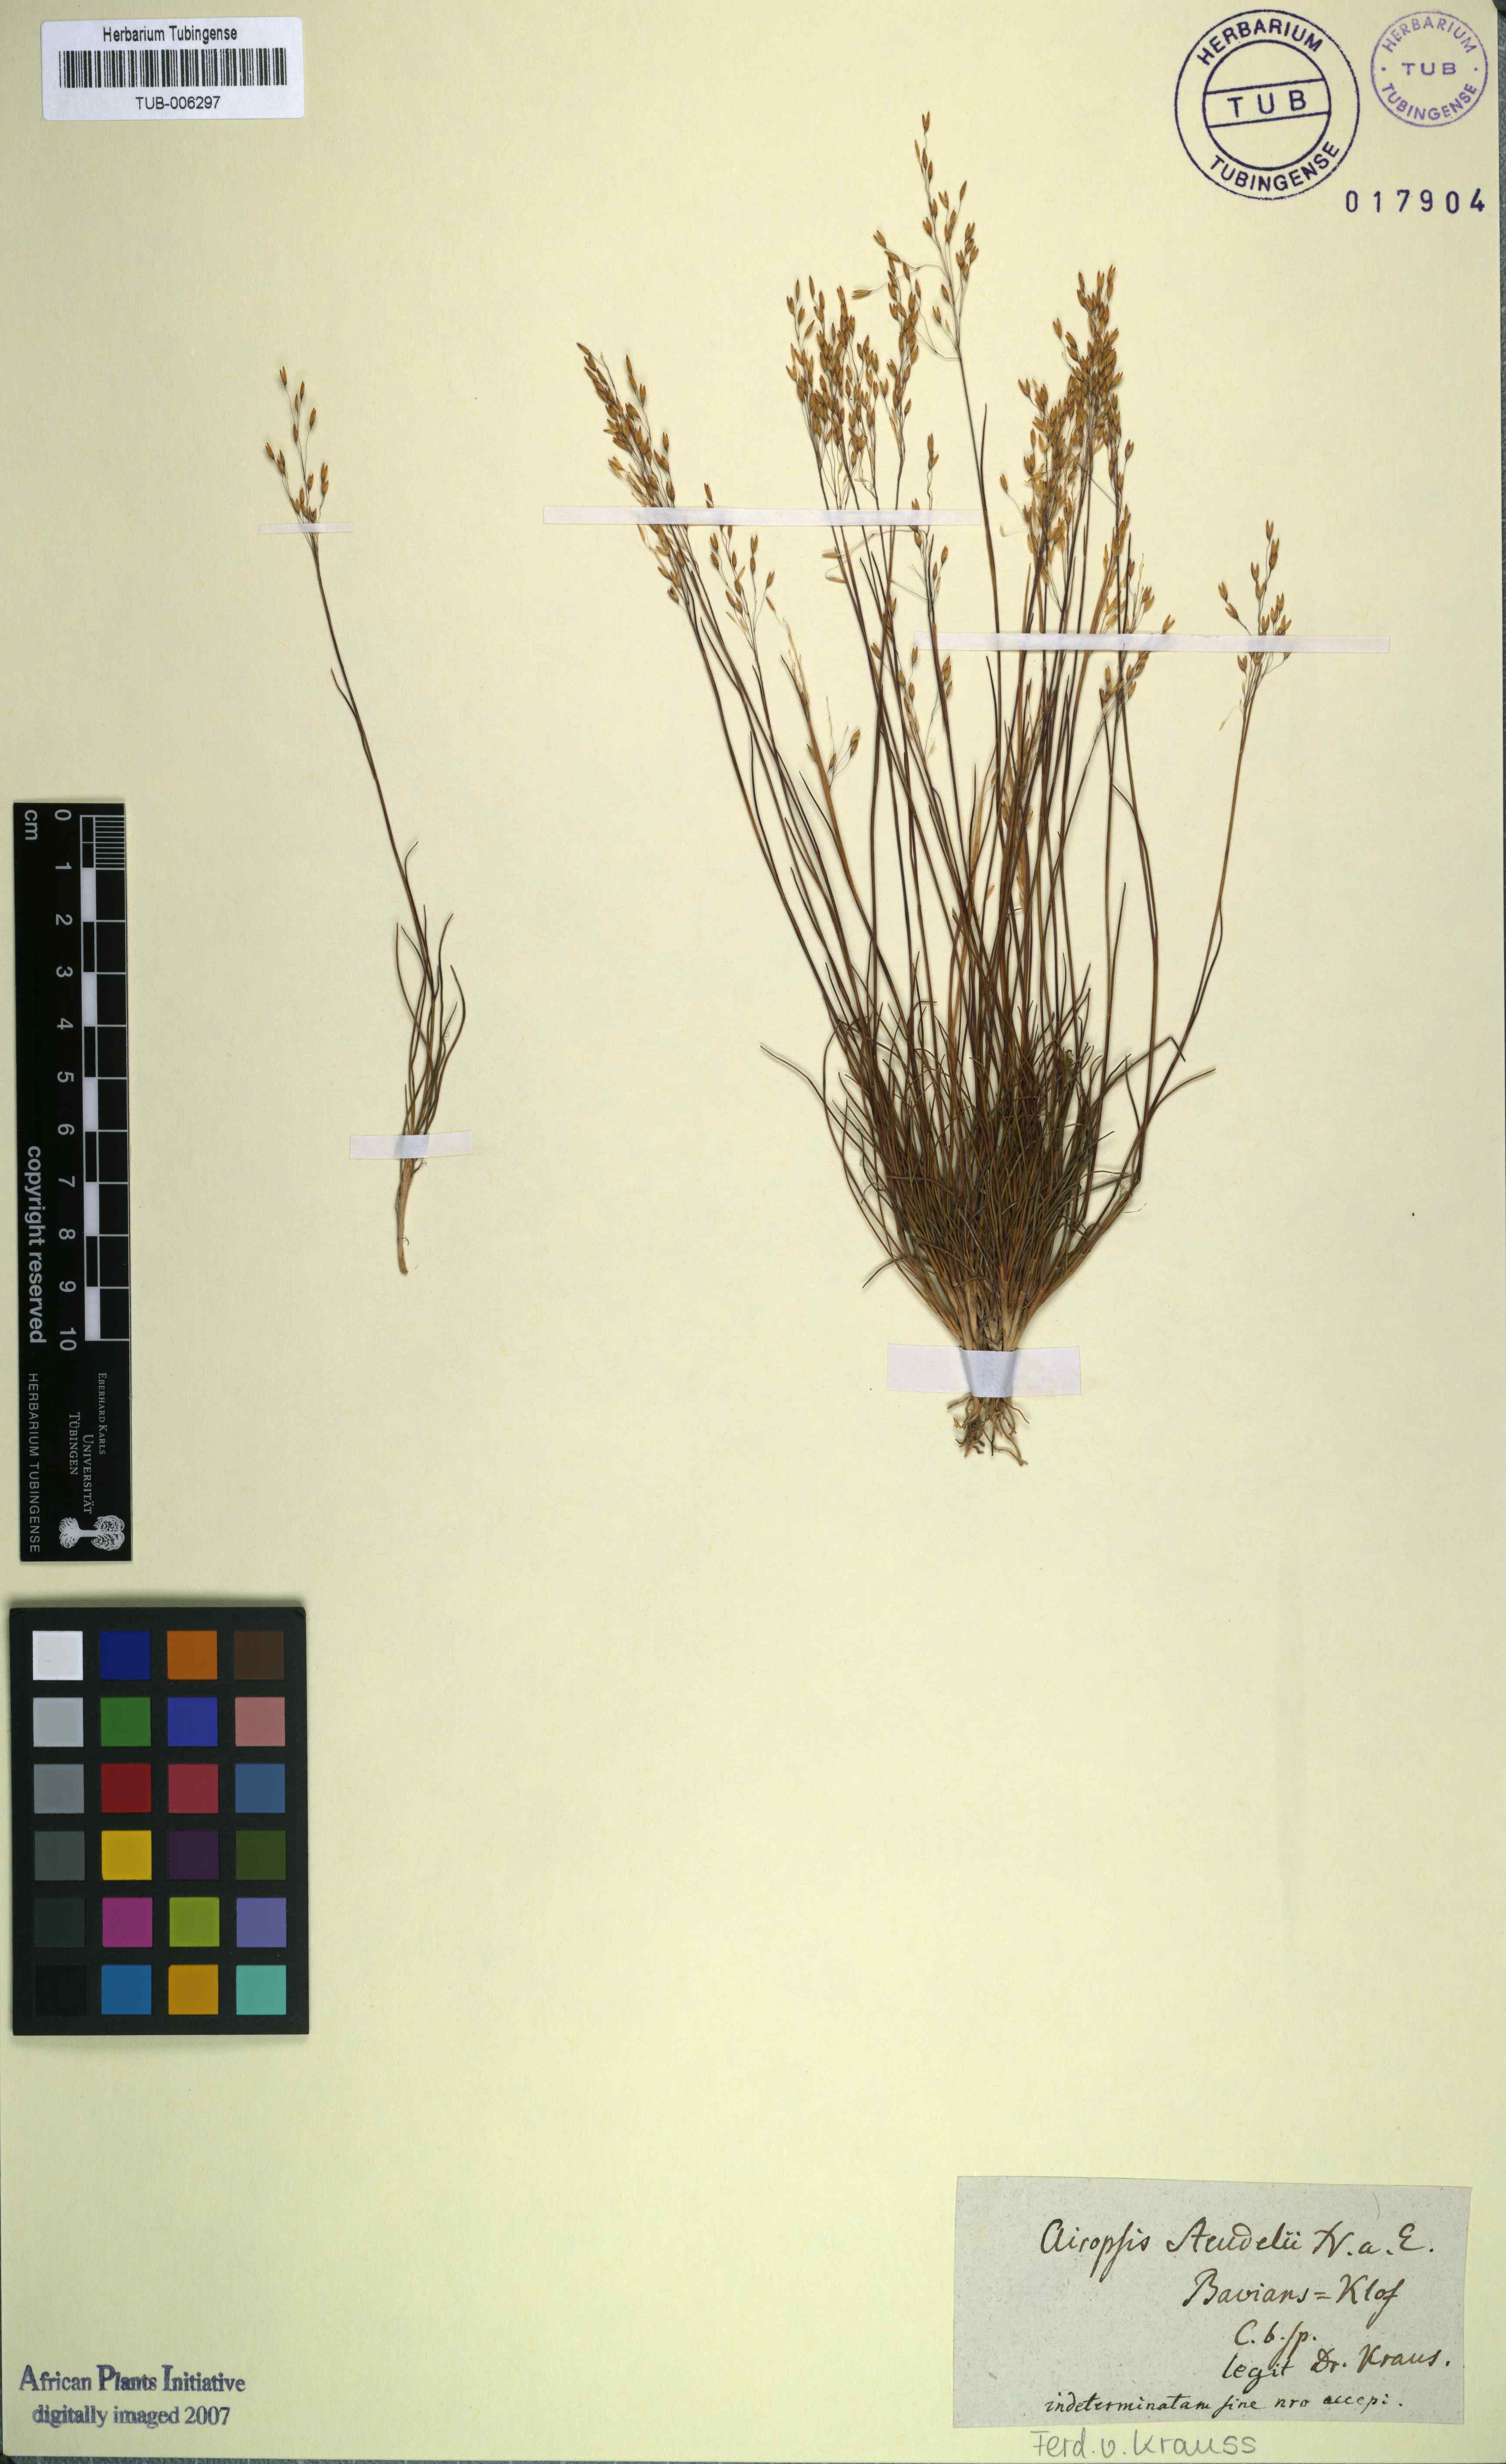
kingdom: Plantae
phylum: Tracheophyta
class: Liliopsida
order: Poales
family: Poaceae
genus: Pentameris
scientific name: Pentameris malouinensis
